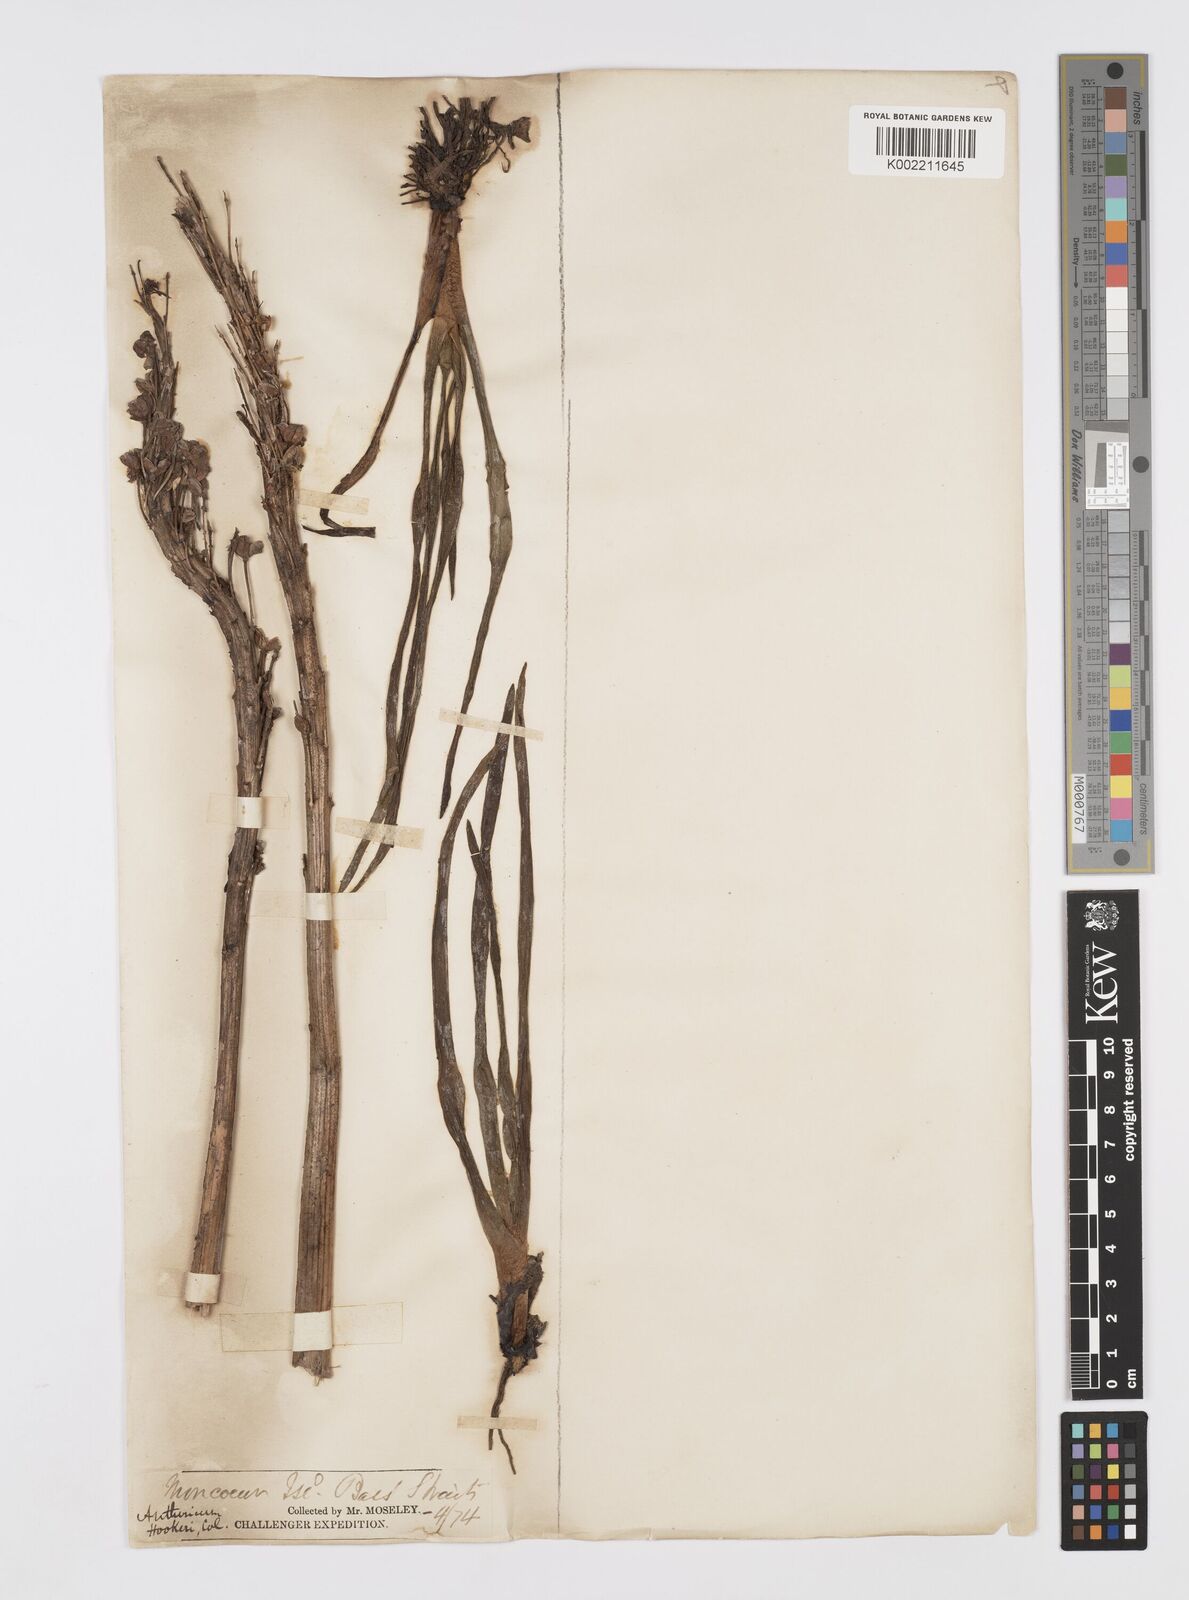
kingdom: Plantae
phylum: Tracheophyta
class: Liliopsida
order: Asparagales
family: Asphodelaceae
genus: Bulbinella
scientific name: Bulbinella hookeri
